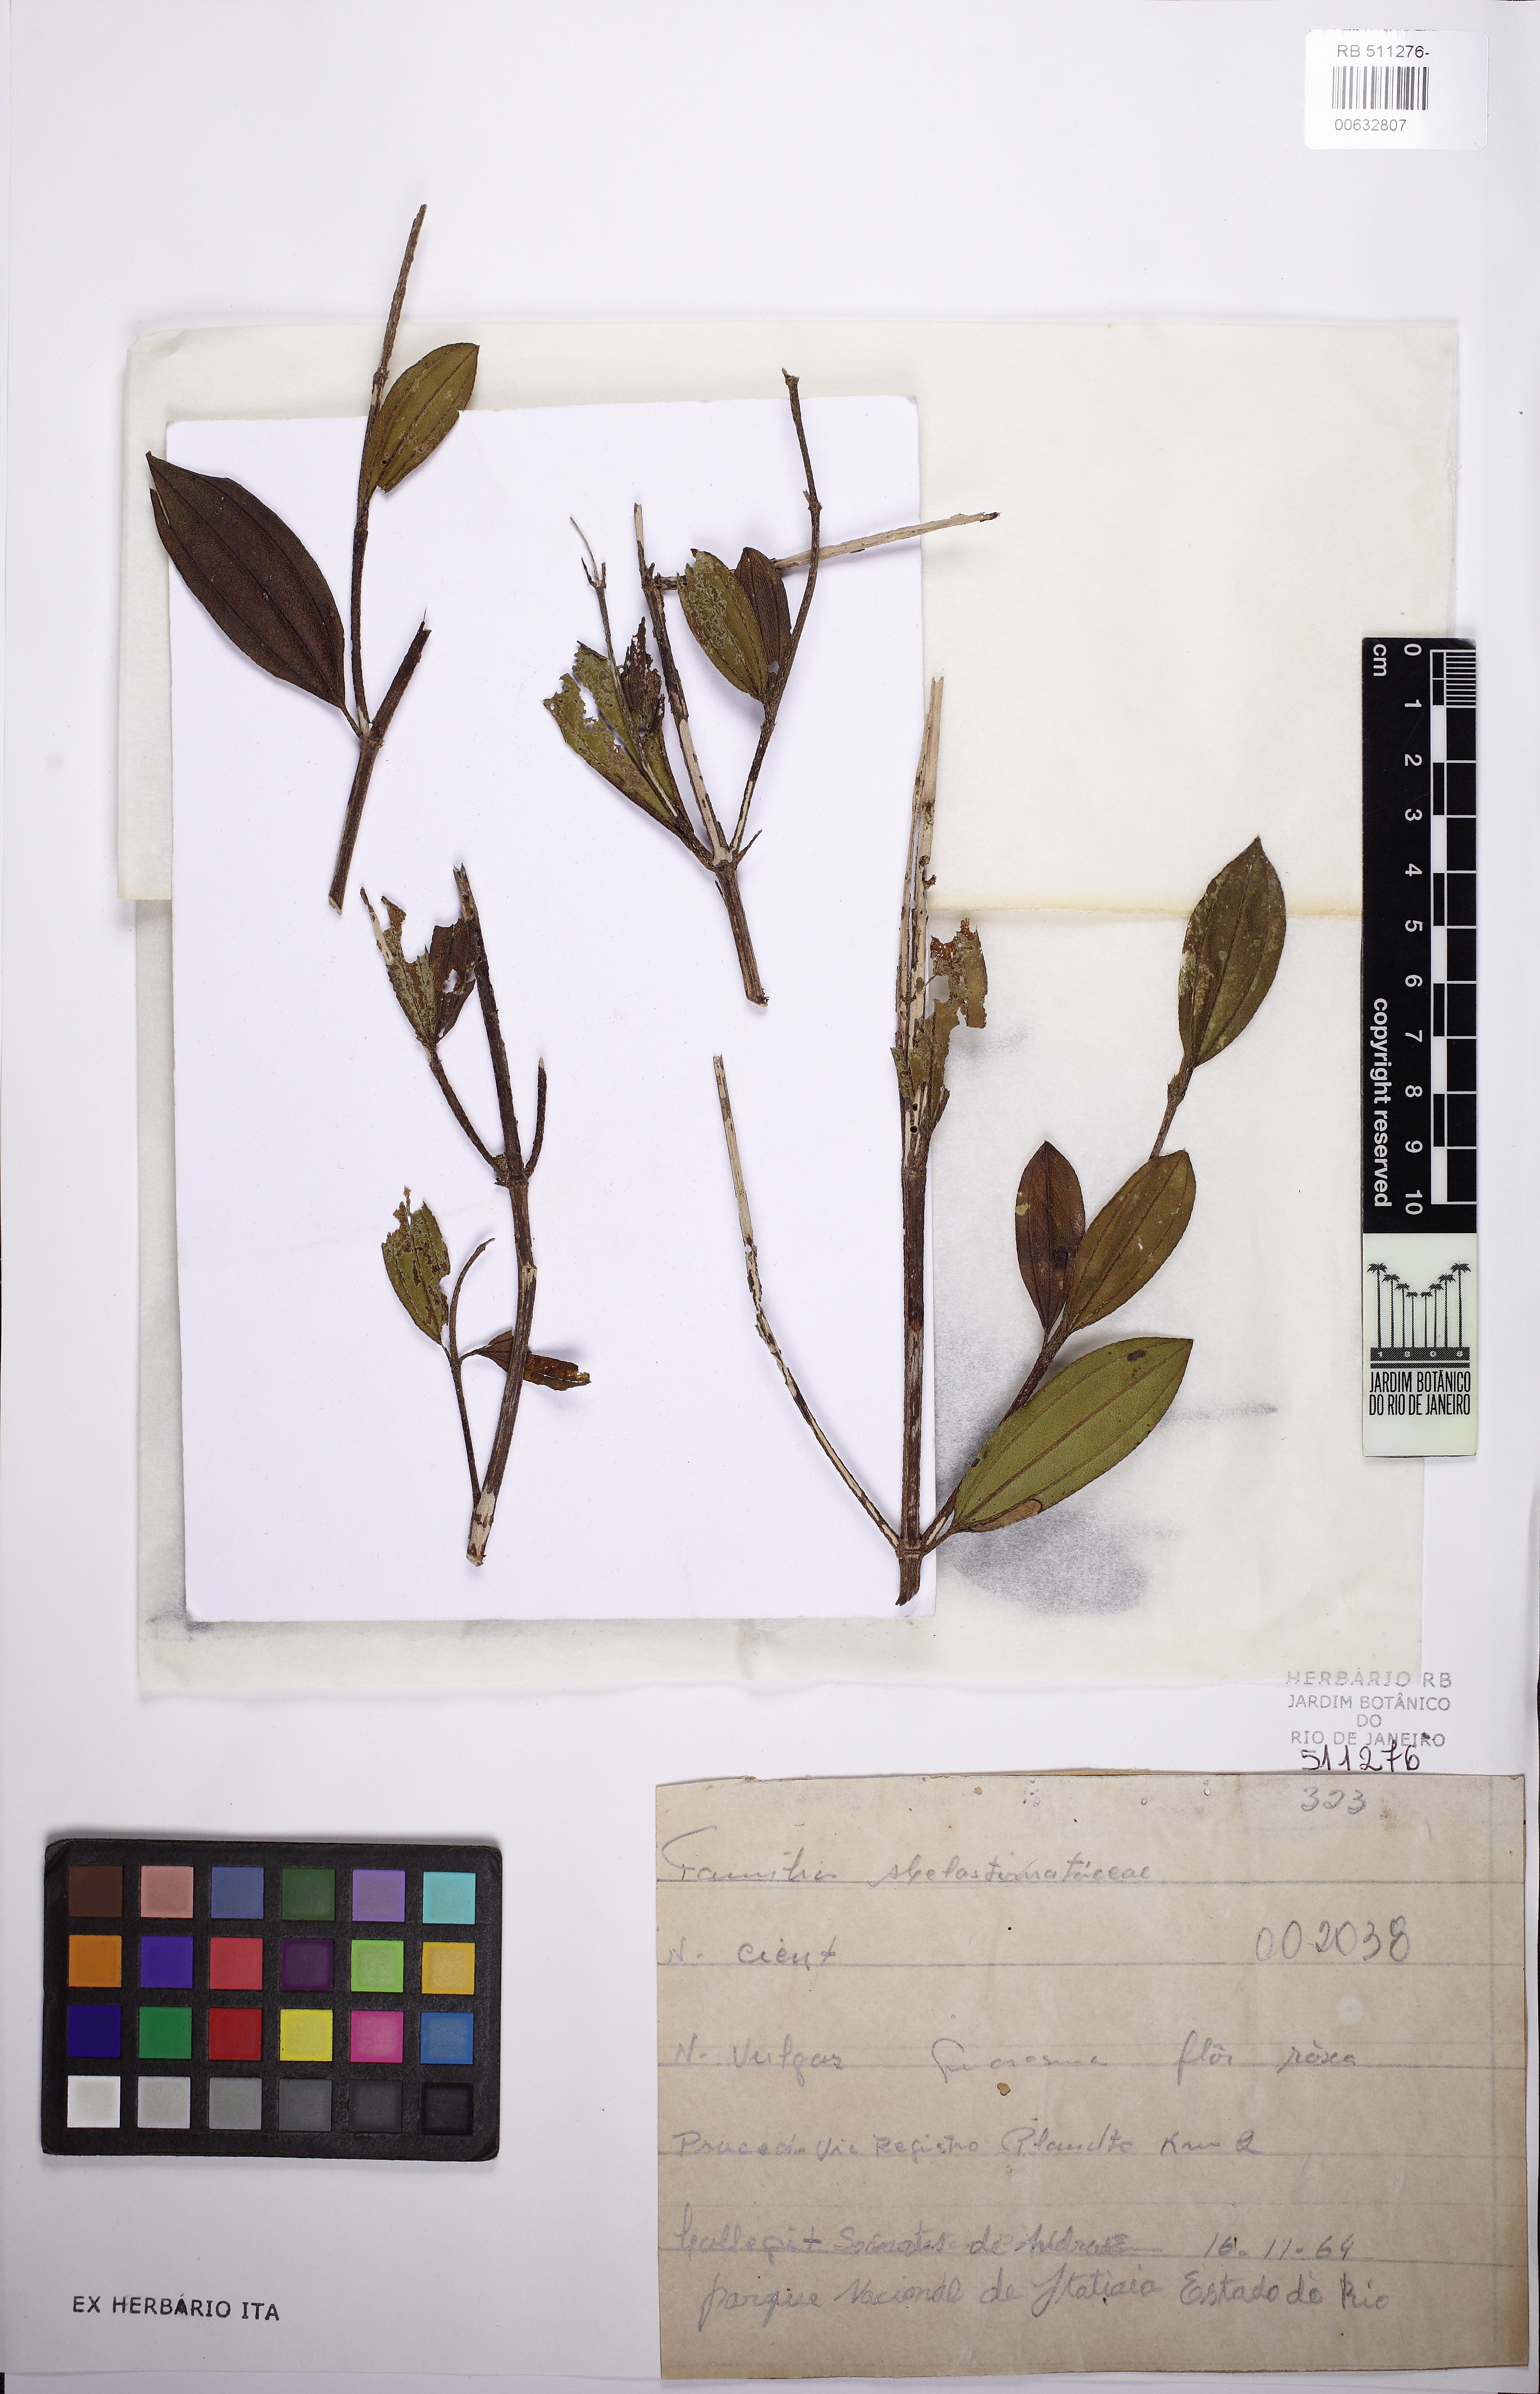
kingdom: Plantae
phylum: Tracheophyta
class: Magnoliopsida
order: Myrtales
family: Melastomataceae
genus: Pleroma
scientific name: Pleroma schenckii
